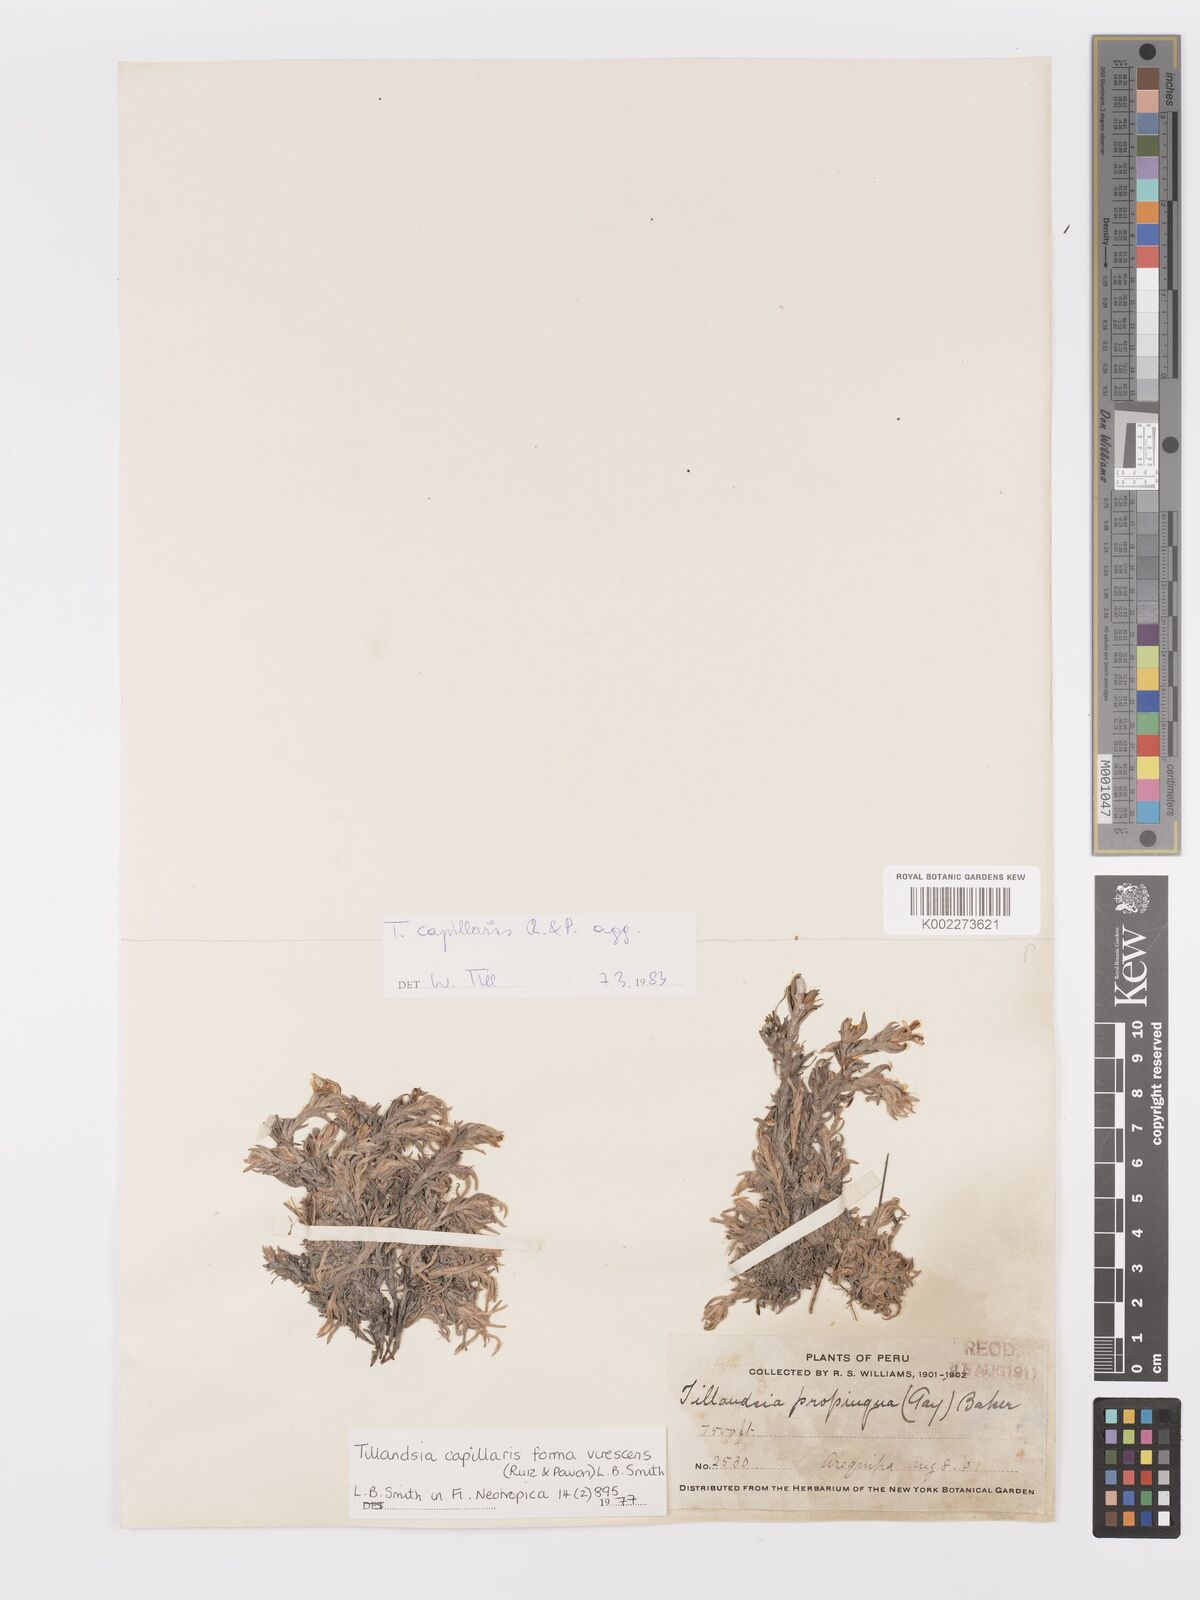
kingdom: Plantae
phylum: Tracheophyta
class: Liliopsida
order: Poales
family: Bromeliaceae
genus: Tillandsia
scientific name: Tillandsia virescens
